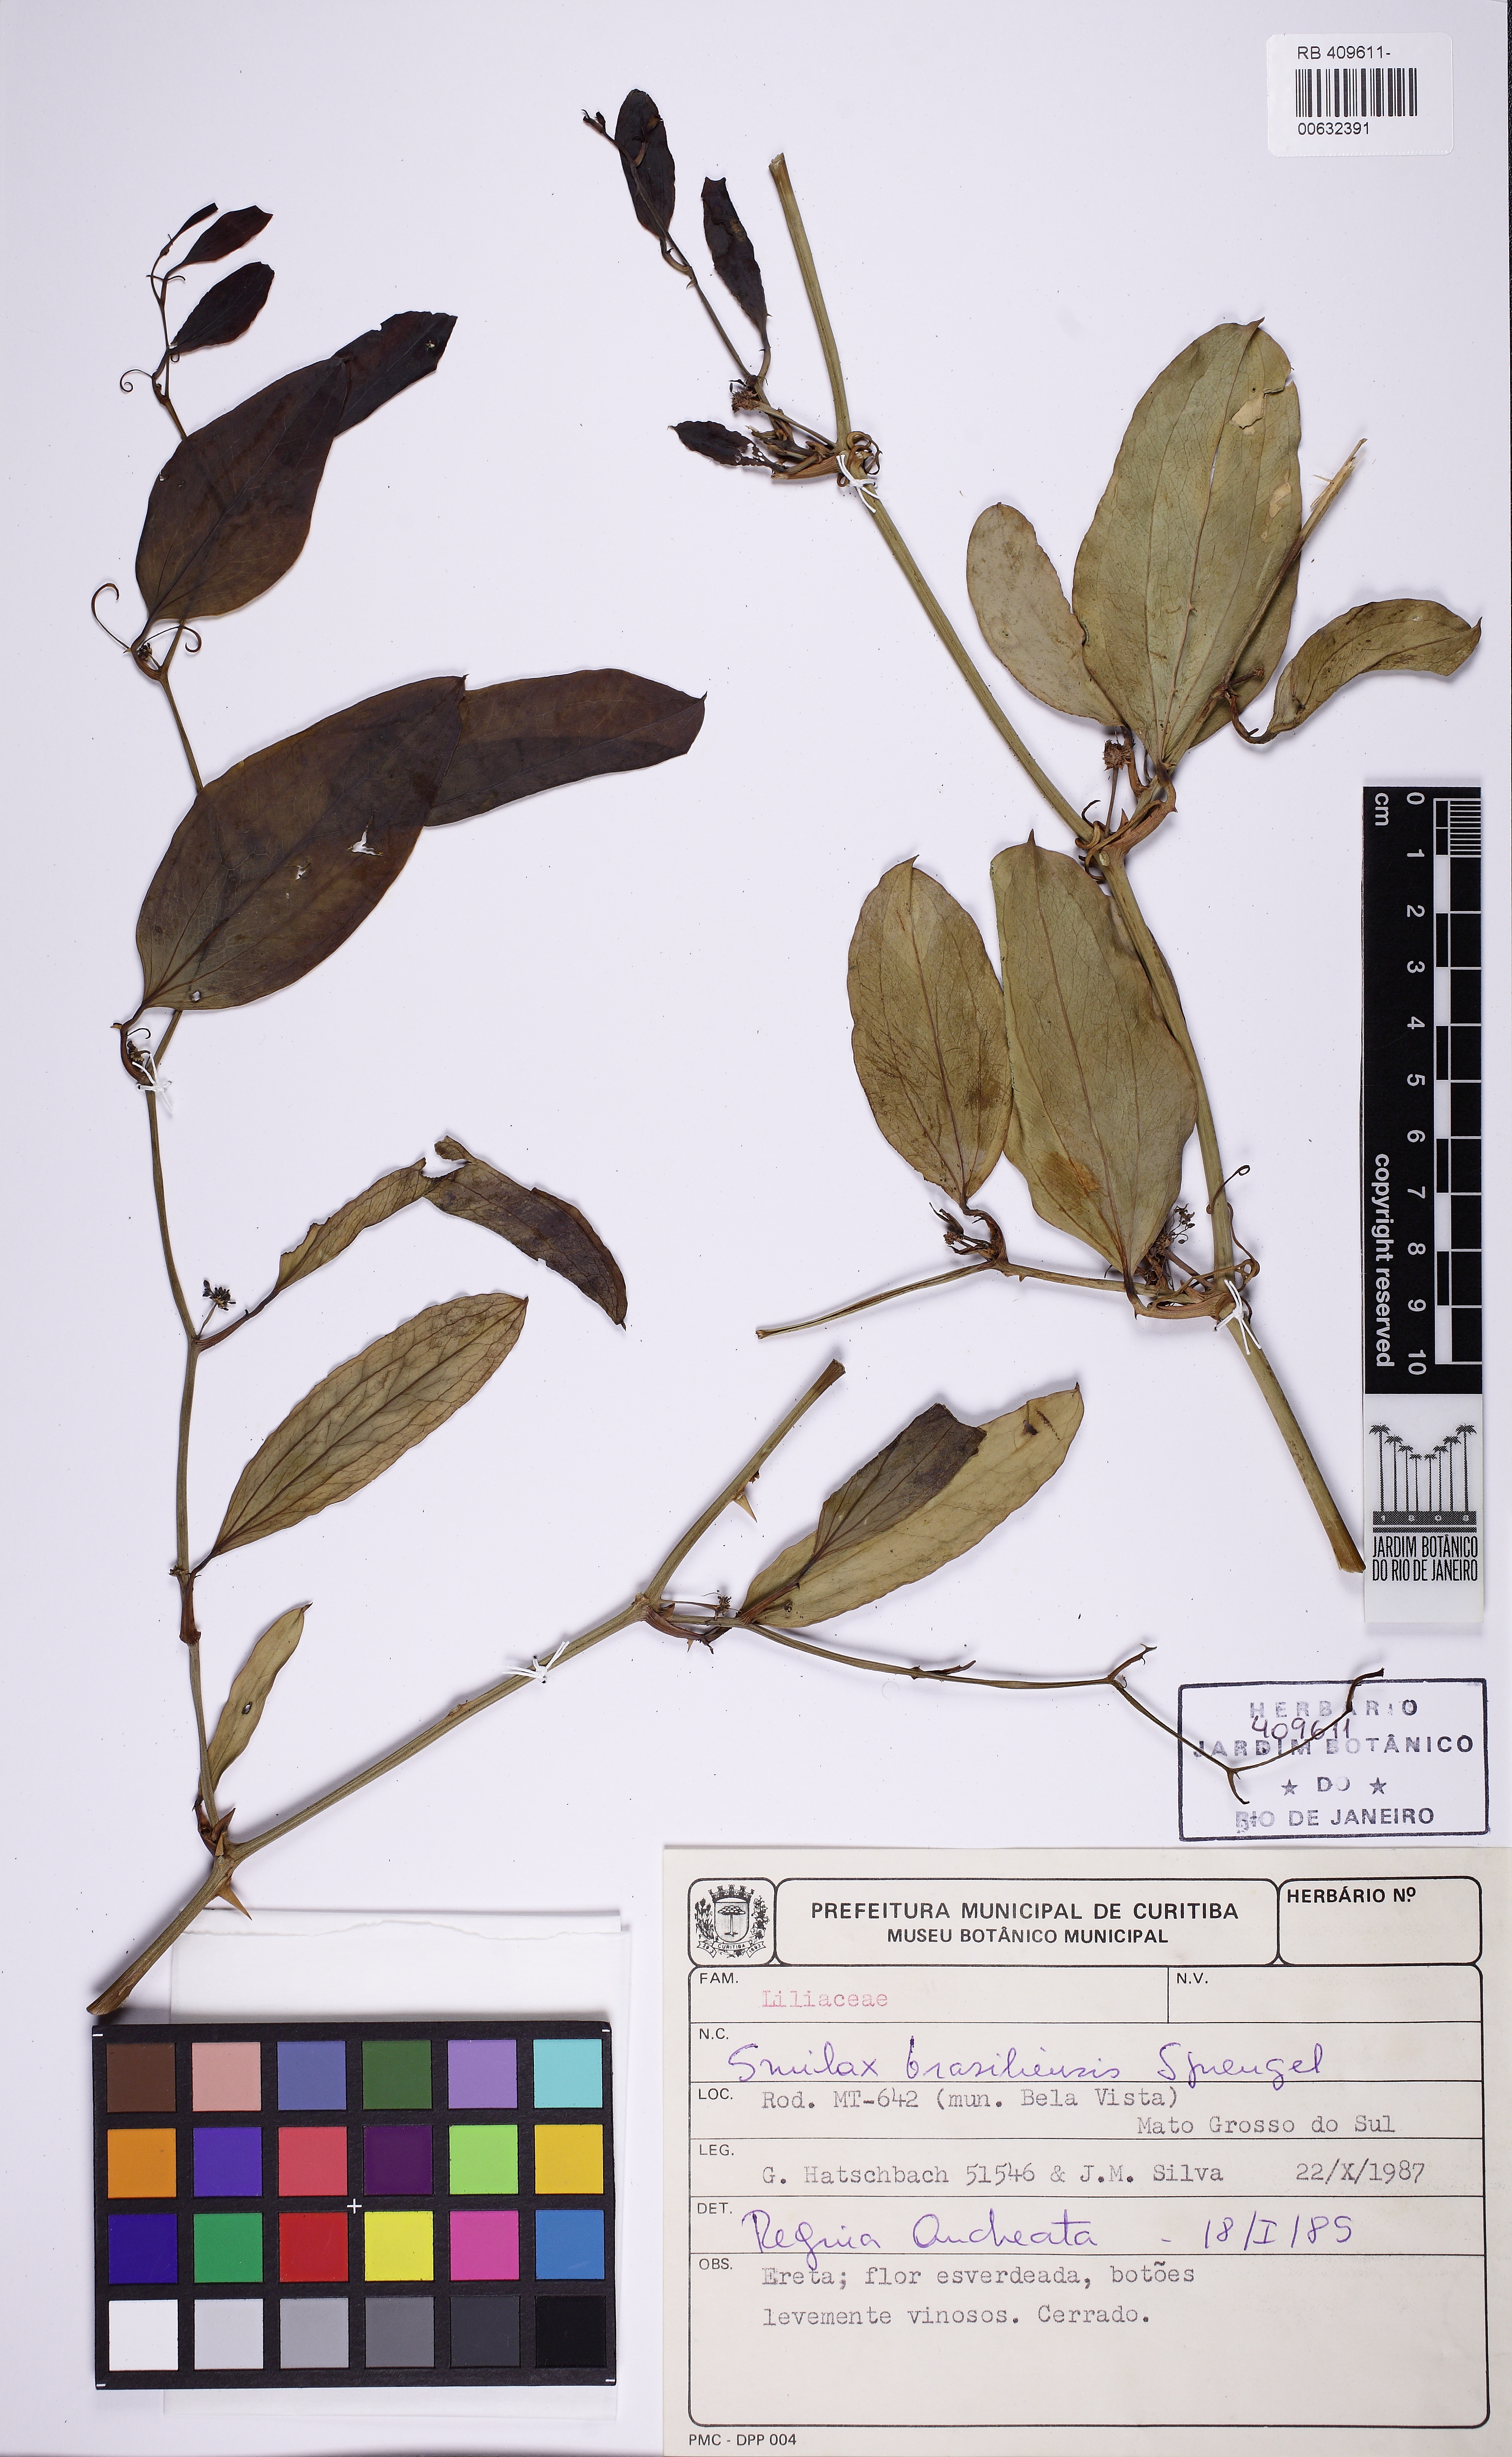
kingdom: Plantae
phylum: Tracheophyta
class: Liliopsida
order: Liliales
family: Smilacaceae
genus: Smilax
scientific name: Smilax brasiliensis
